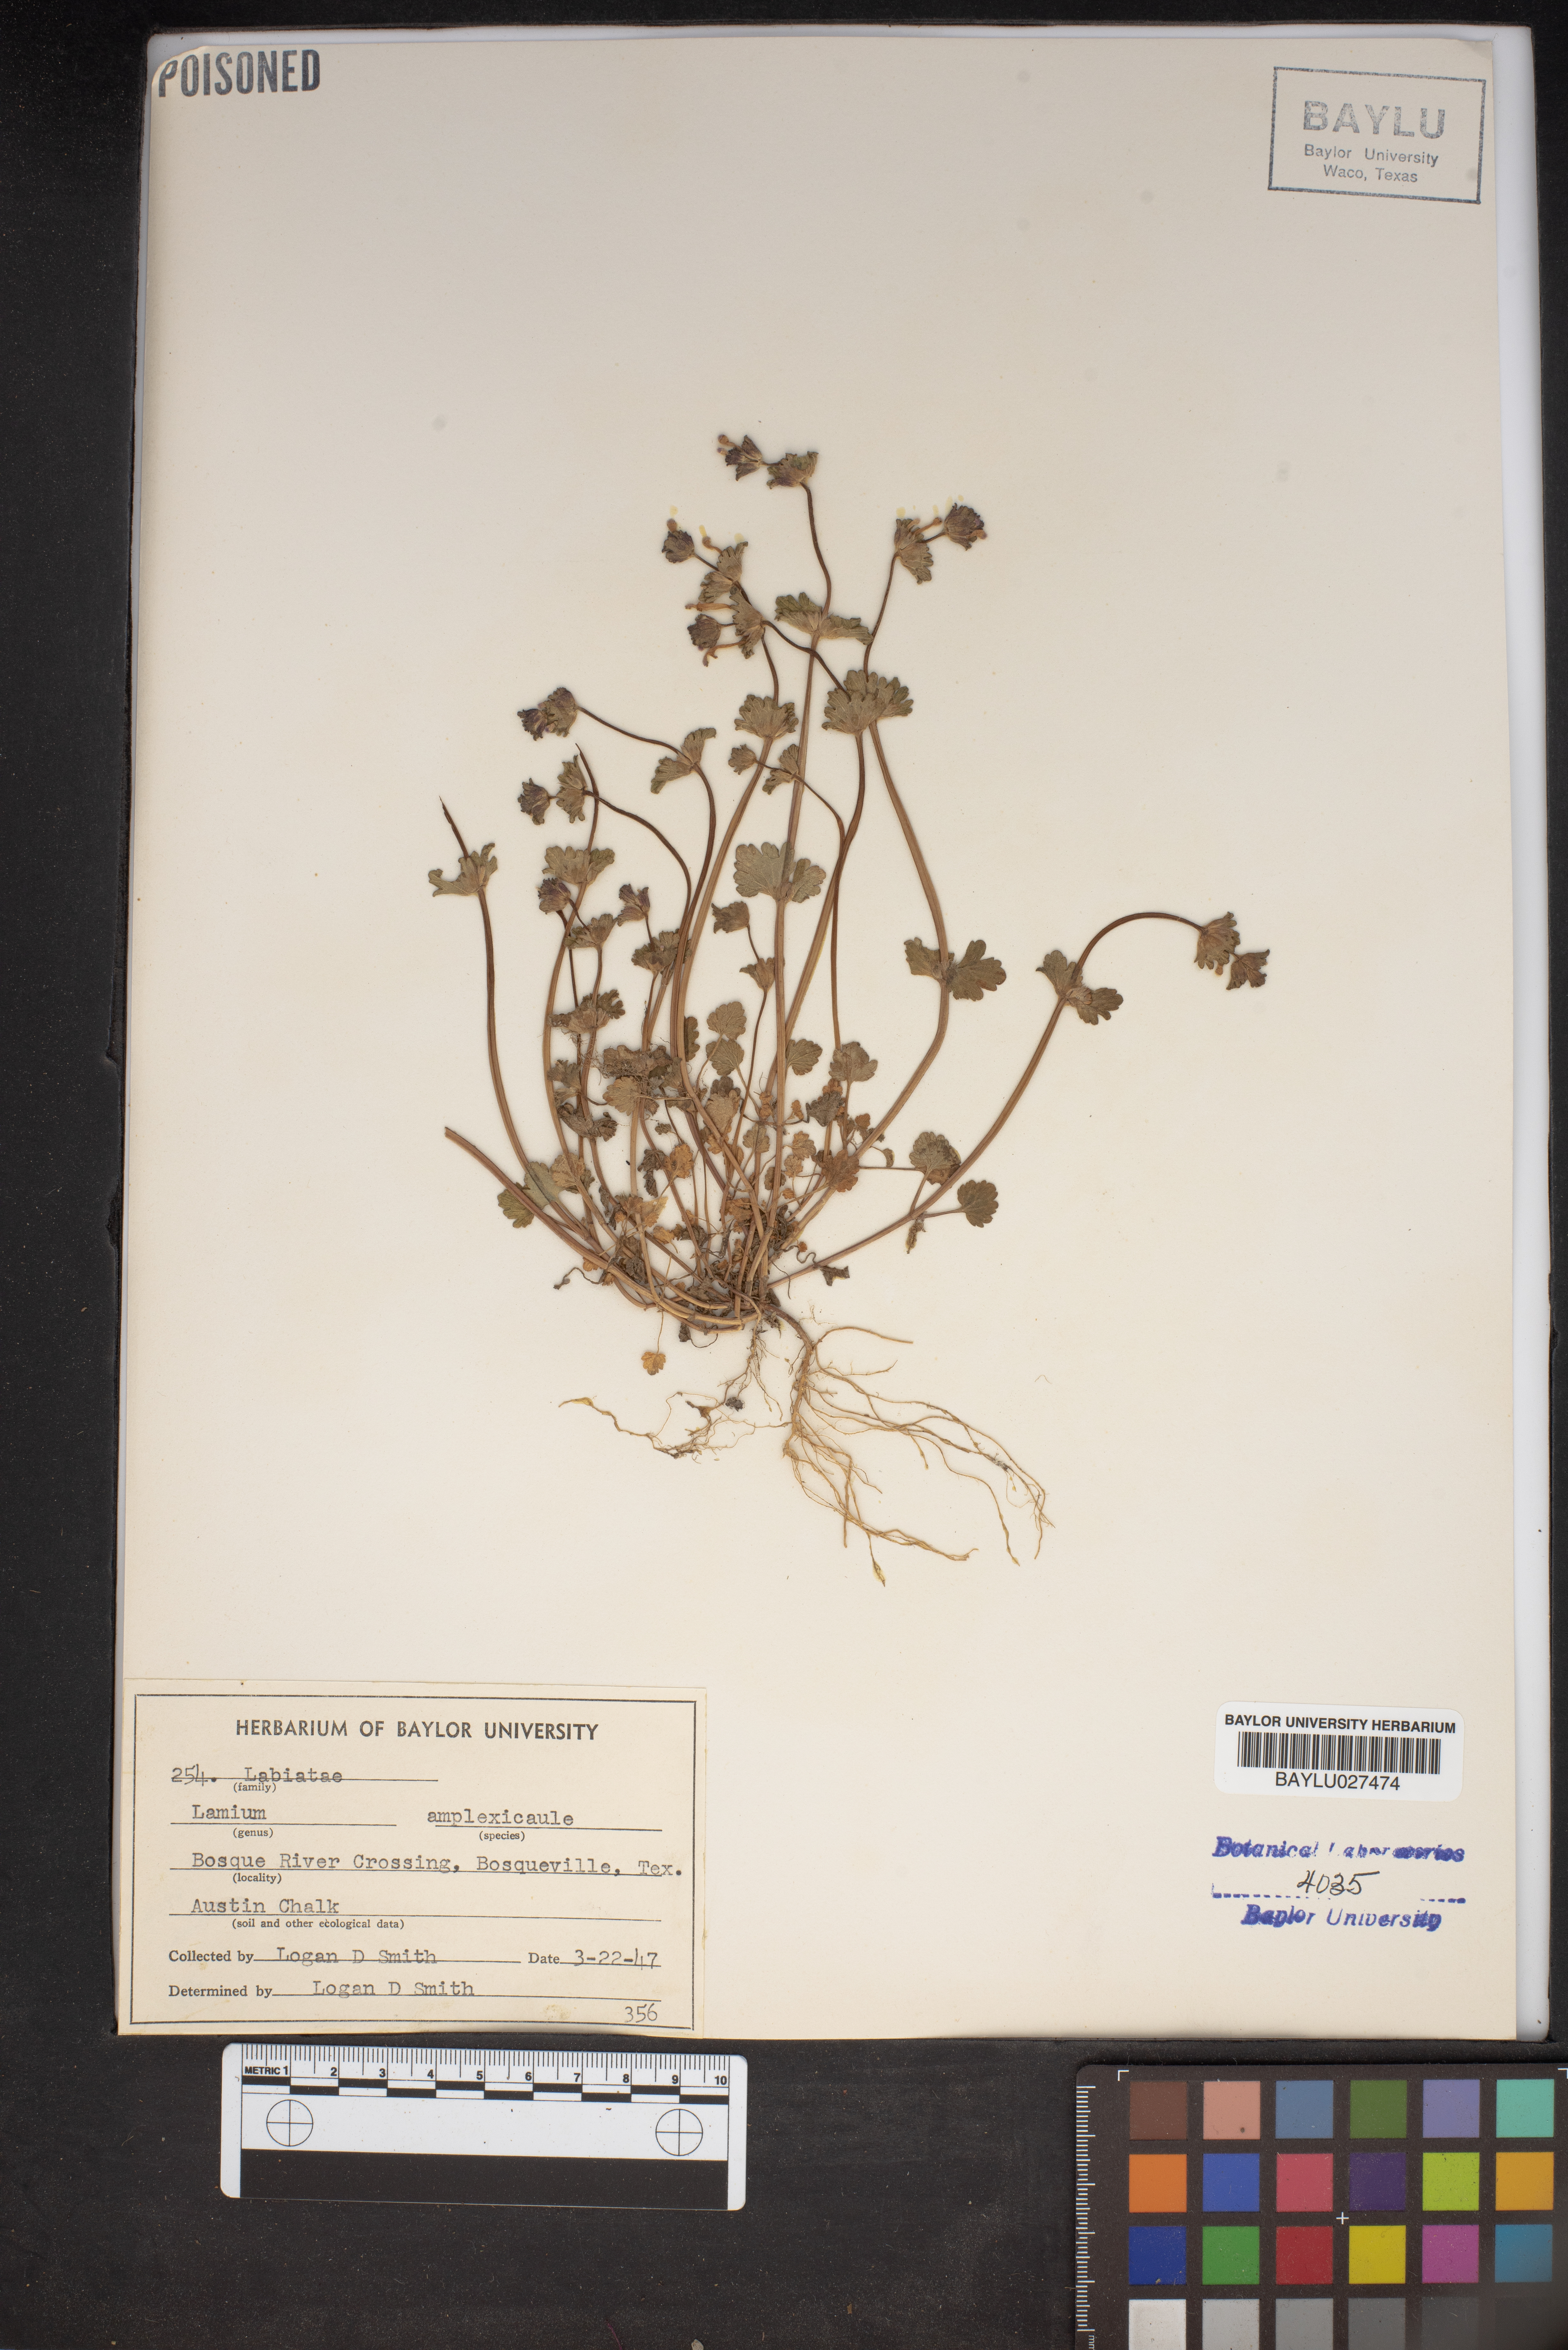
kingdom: Plantae
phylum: Tracheophyta
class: Magnoliopsida
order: Lamiales
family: Lamiaceae
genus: Lamium
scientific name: Lamium amplexicaule
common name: Henbit dead-nettle
